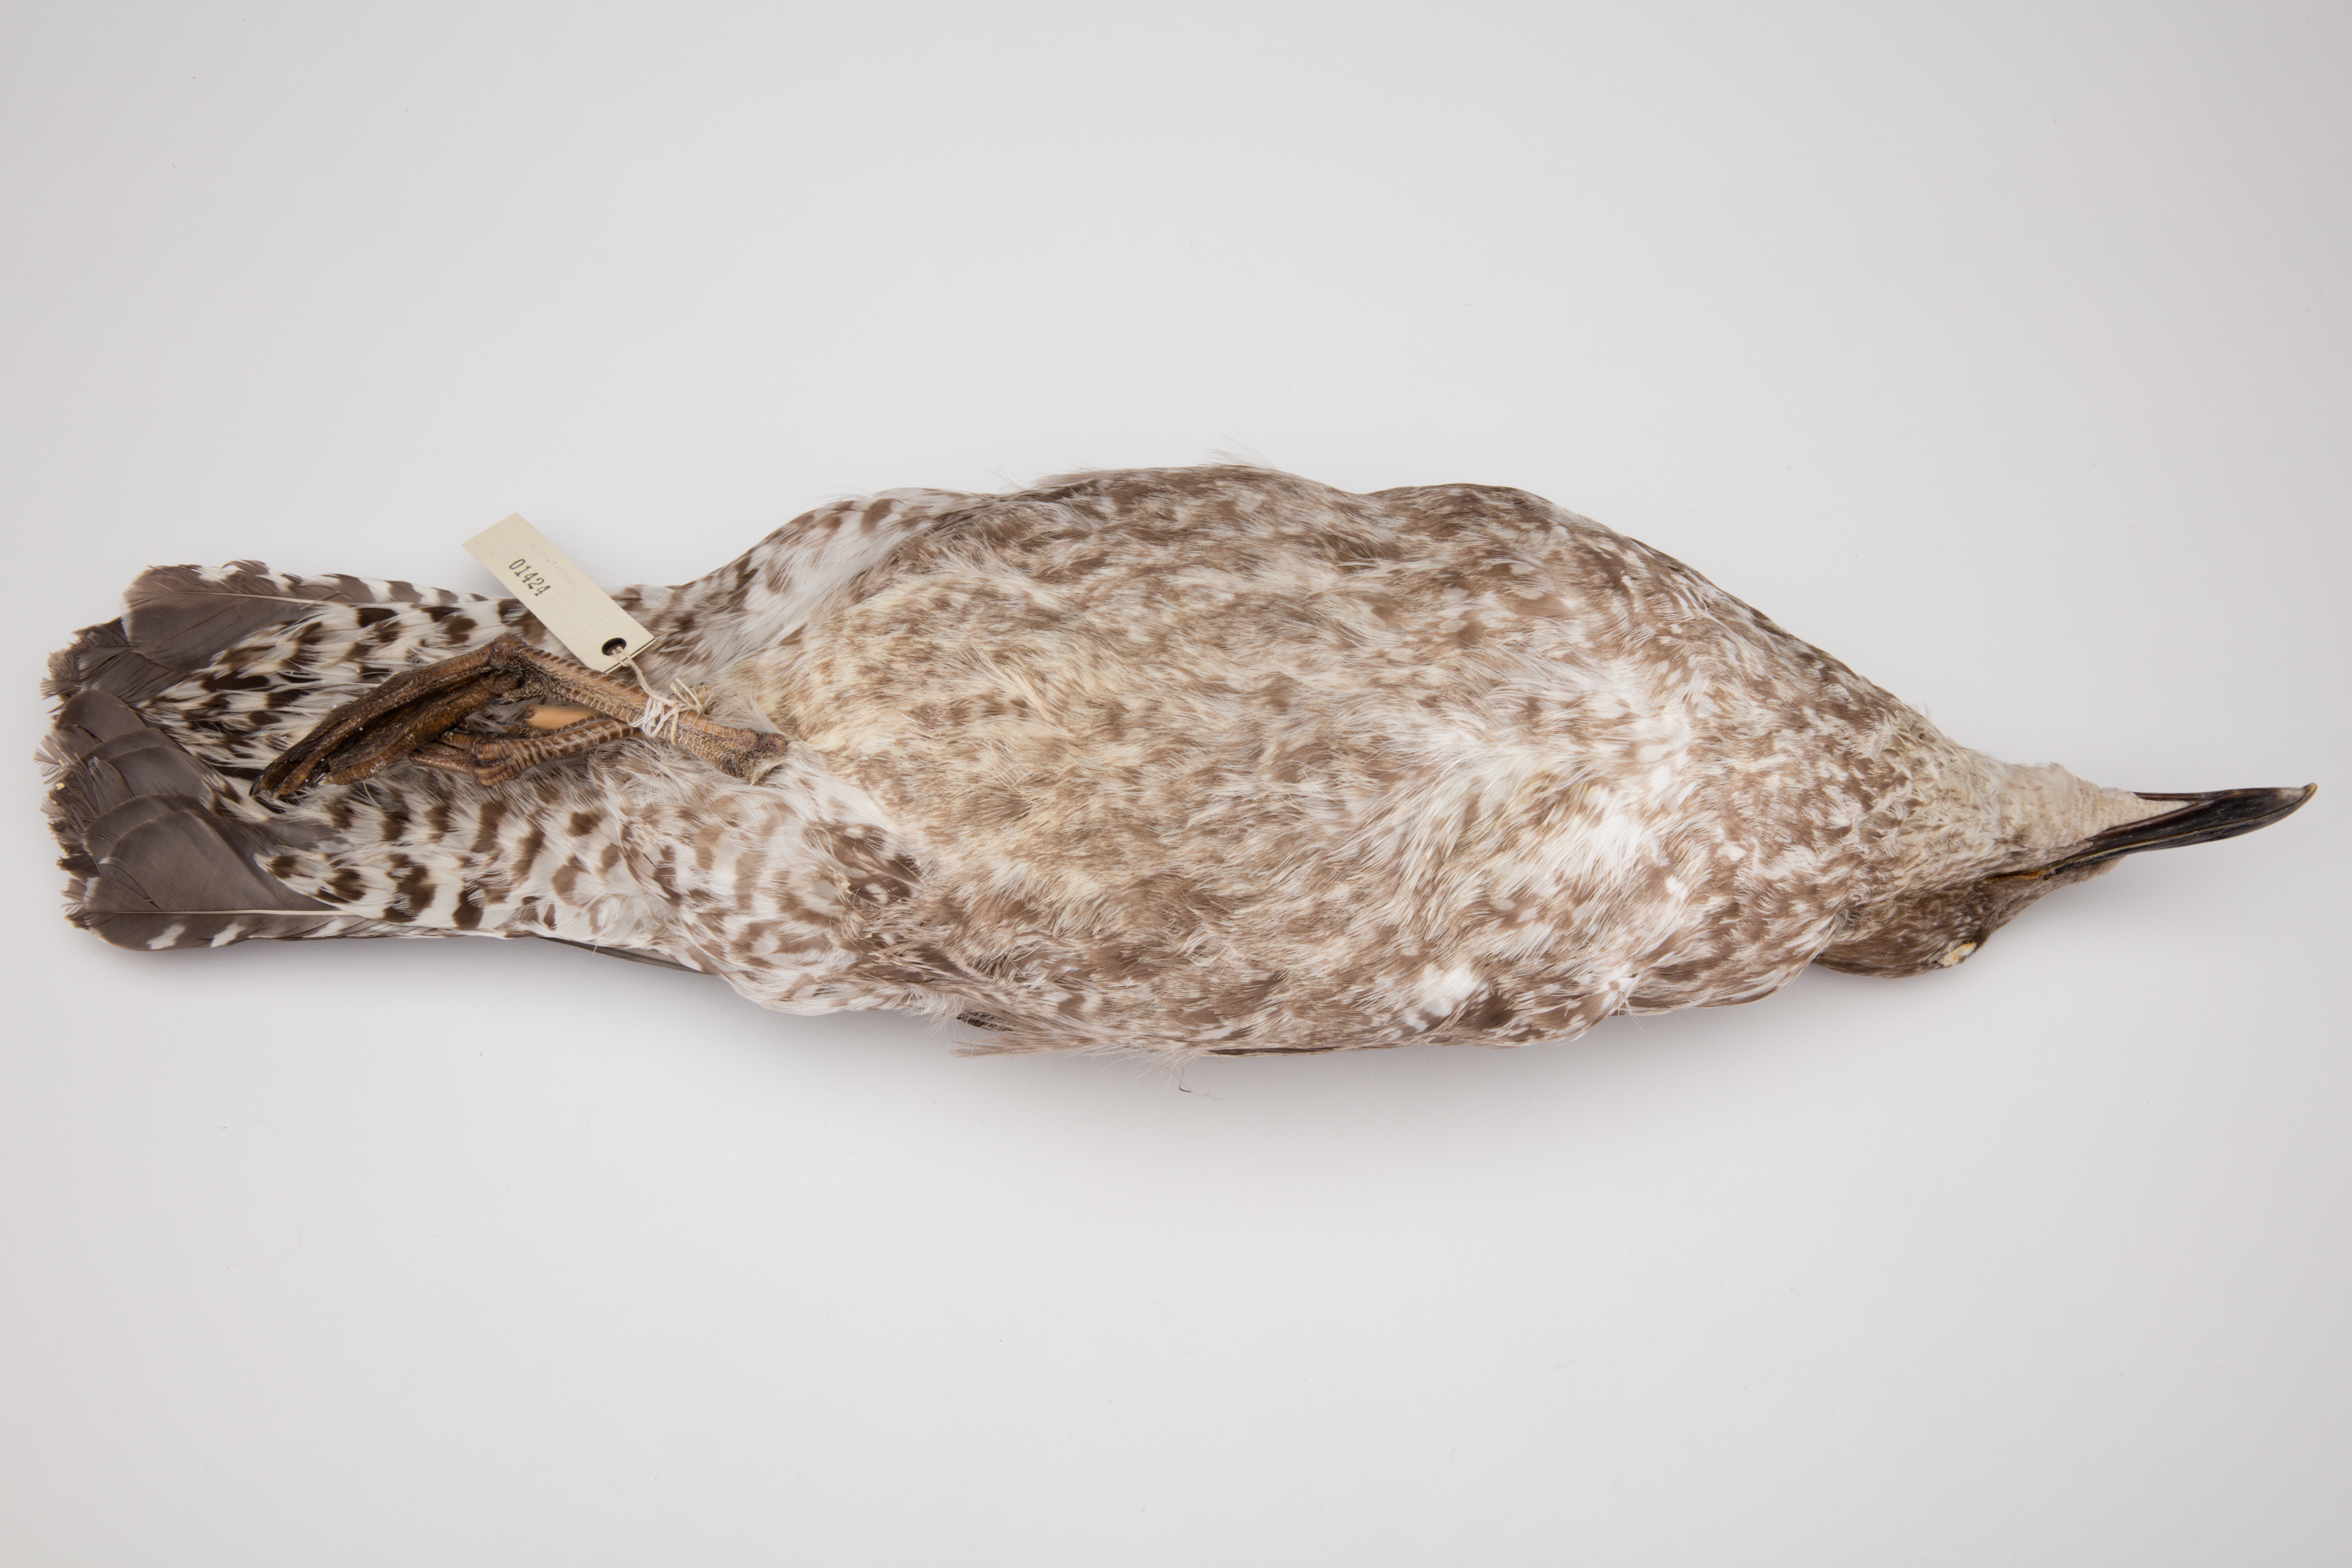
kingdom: Animalia
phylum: Chordata
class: Aves
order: Charadriiformes
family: Laridae
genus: Larus
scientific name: Larus dominicanus
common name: Kelp gull
